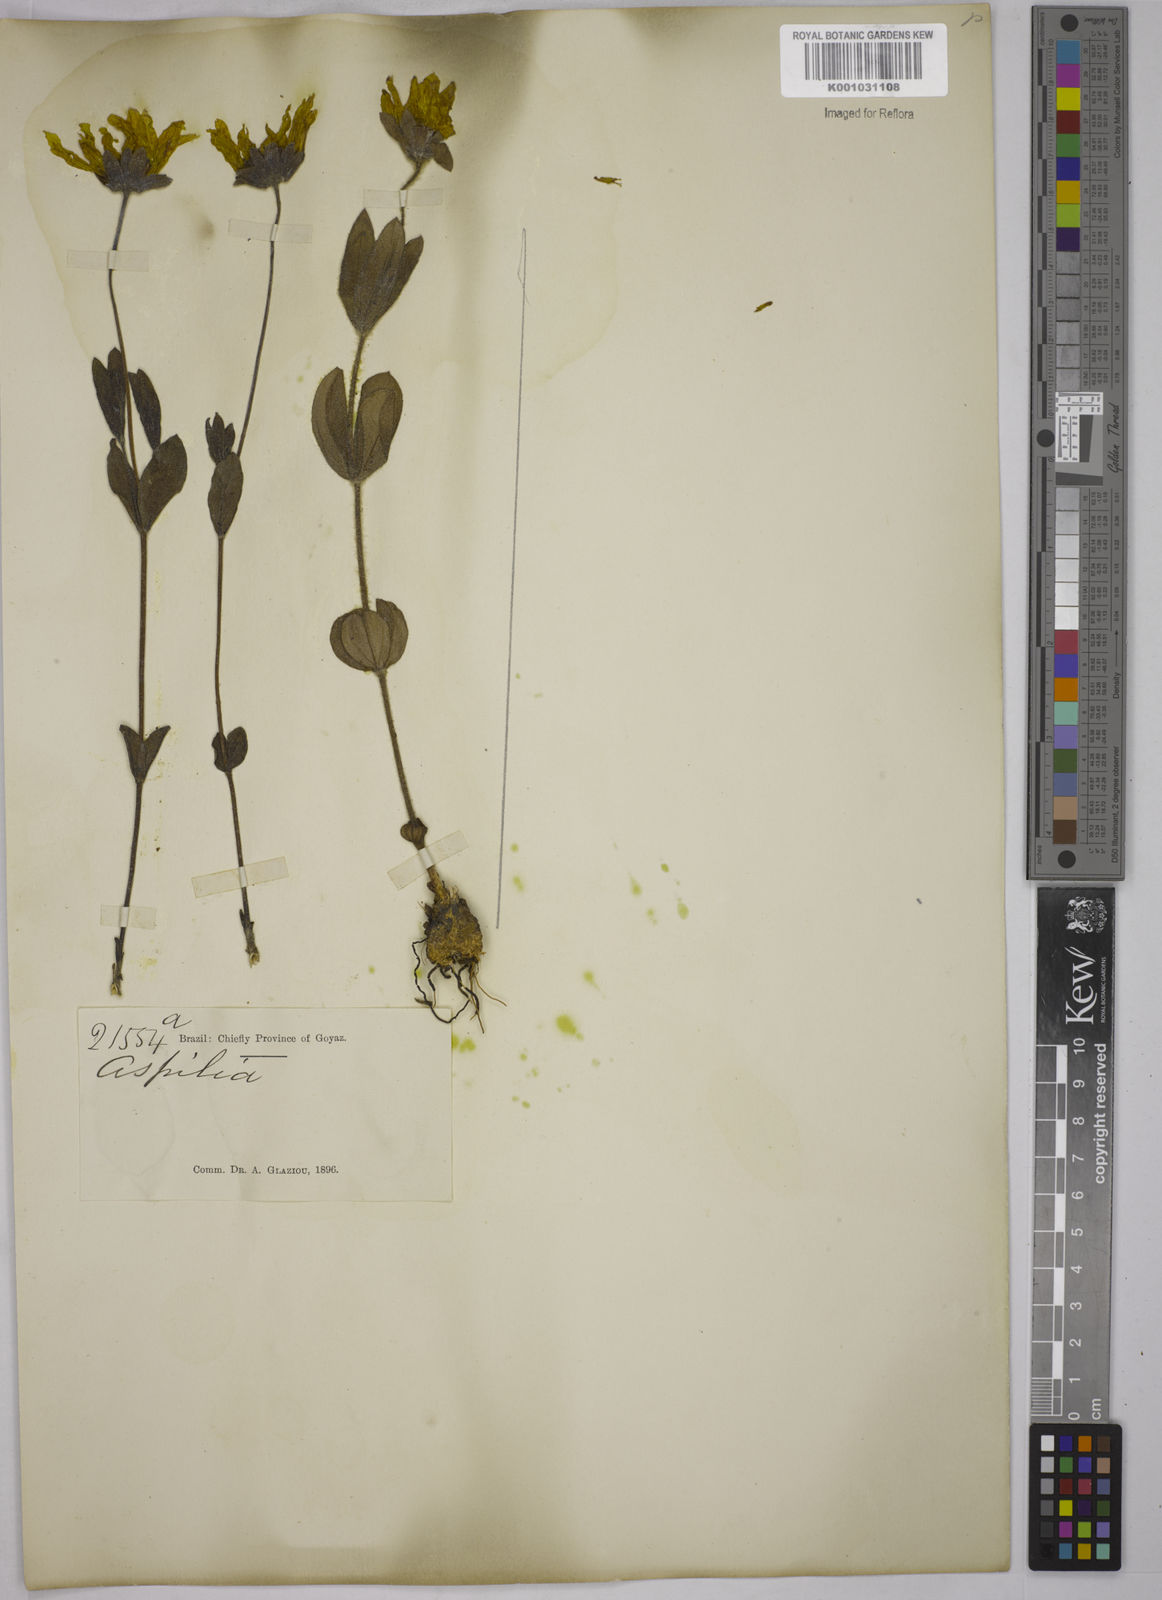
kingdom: Plantae
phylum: Tracheophyta
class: Magnoliopsida
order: Asterales
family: Asteraceae
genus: Aspilia
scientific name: Aspilia
